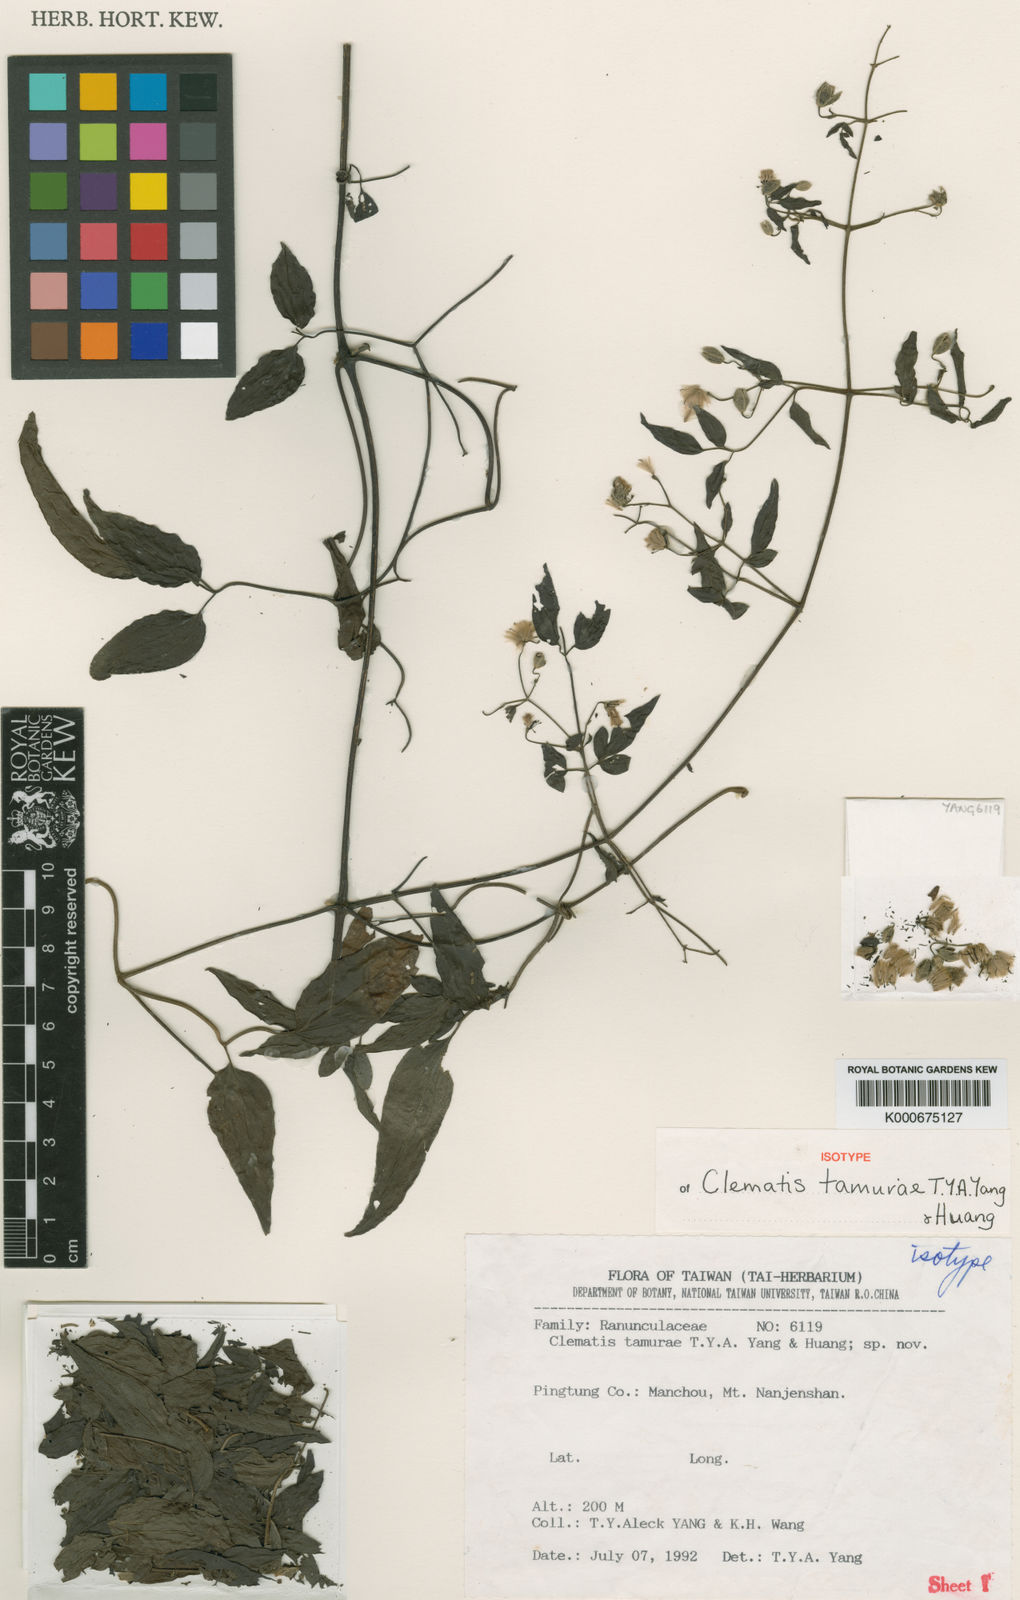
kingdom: Plantae
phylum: Tracheophyta
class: Magnoliopsida
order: Ranunculales
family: Ranunculaceae
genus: Clematis
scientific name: Clematis tamurae
